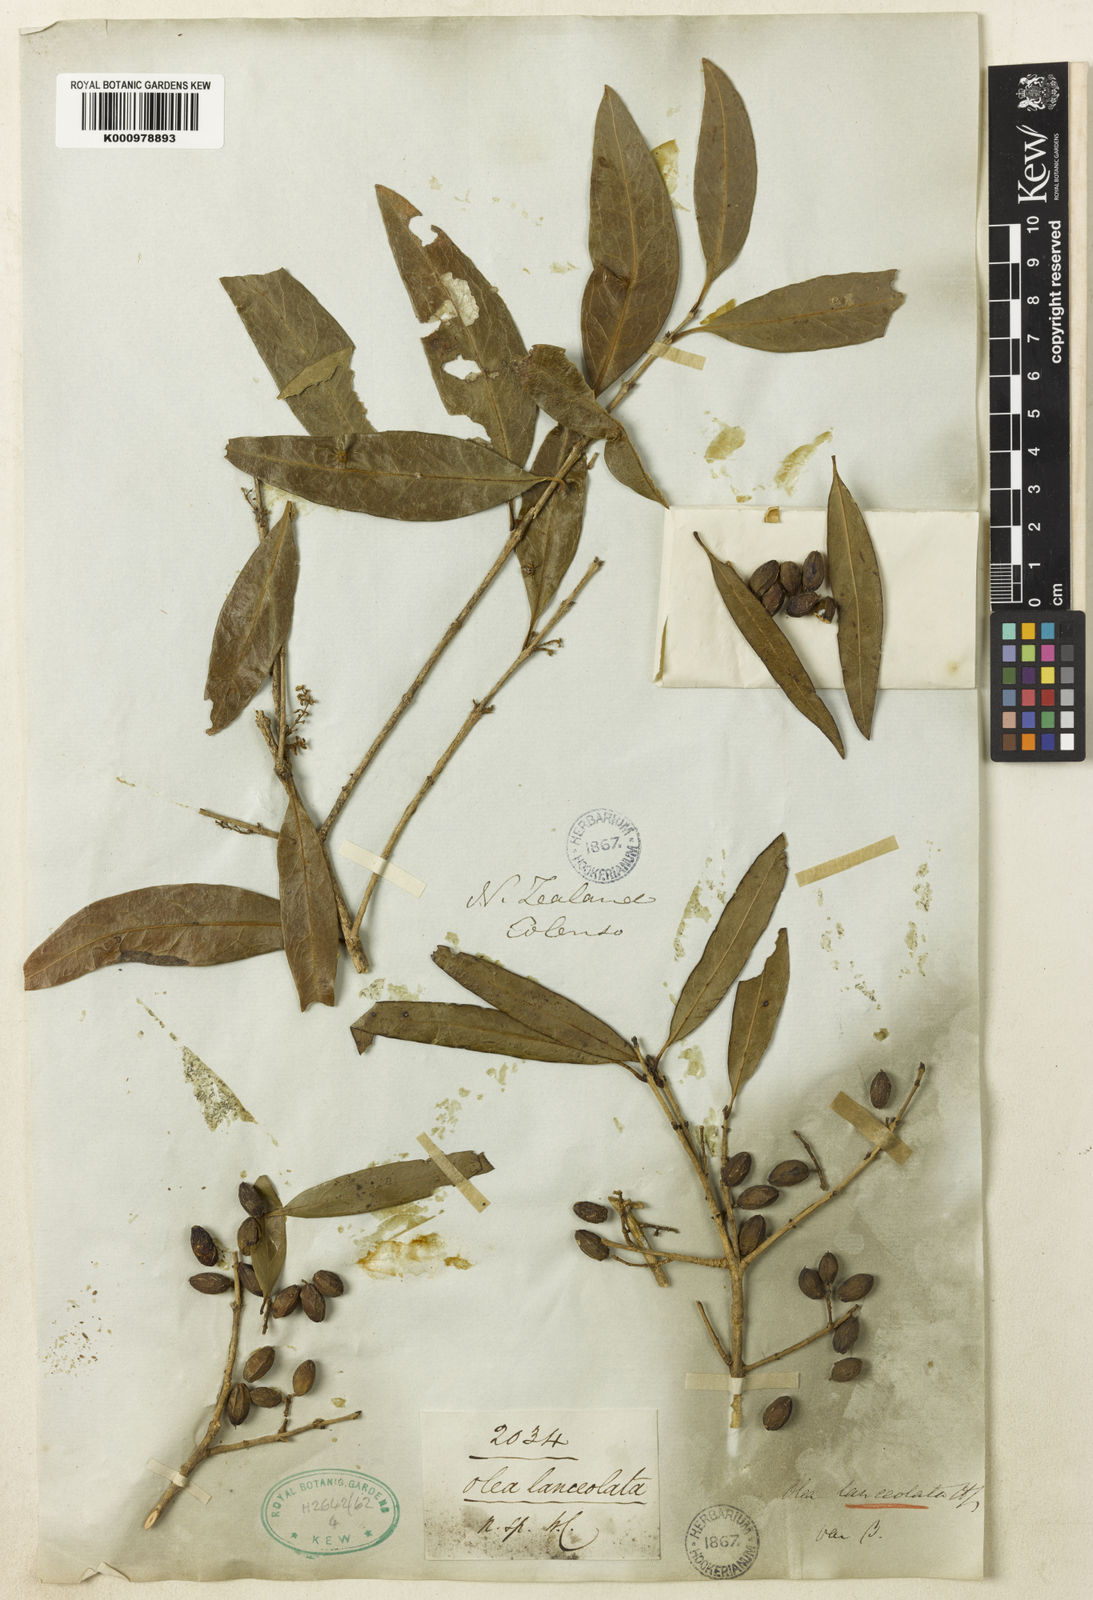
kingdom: Plantae
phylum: Tracheophyta
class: Magnoliopsida
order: Lamiales
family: Oleaceae
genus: Nestegis
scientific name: Nestegis lanceolata
